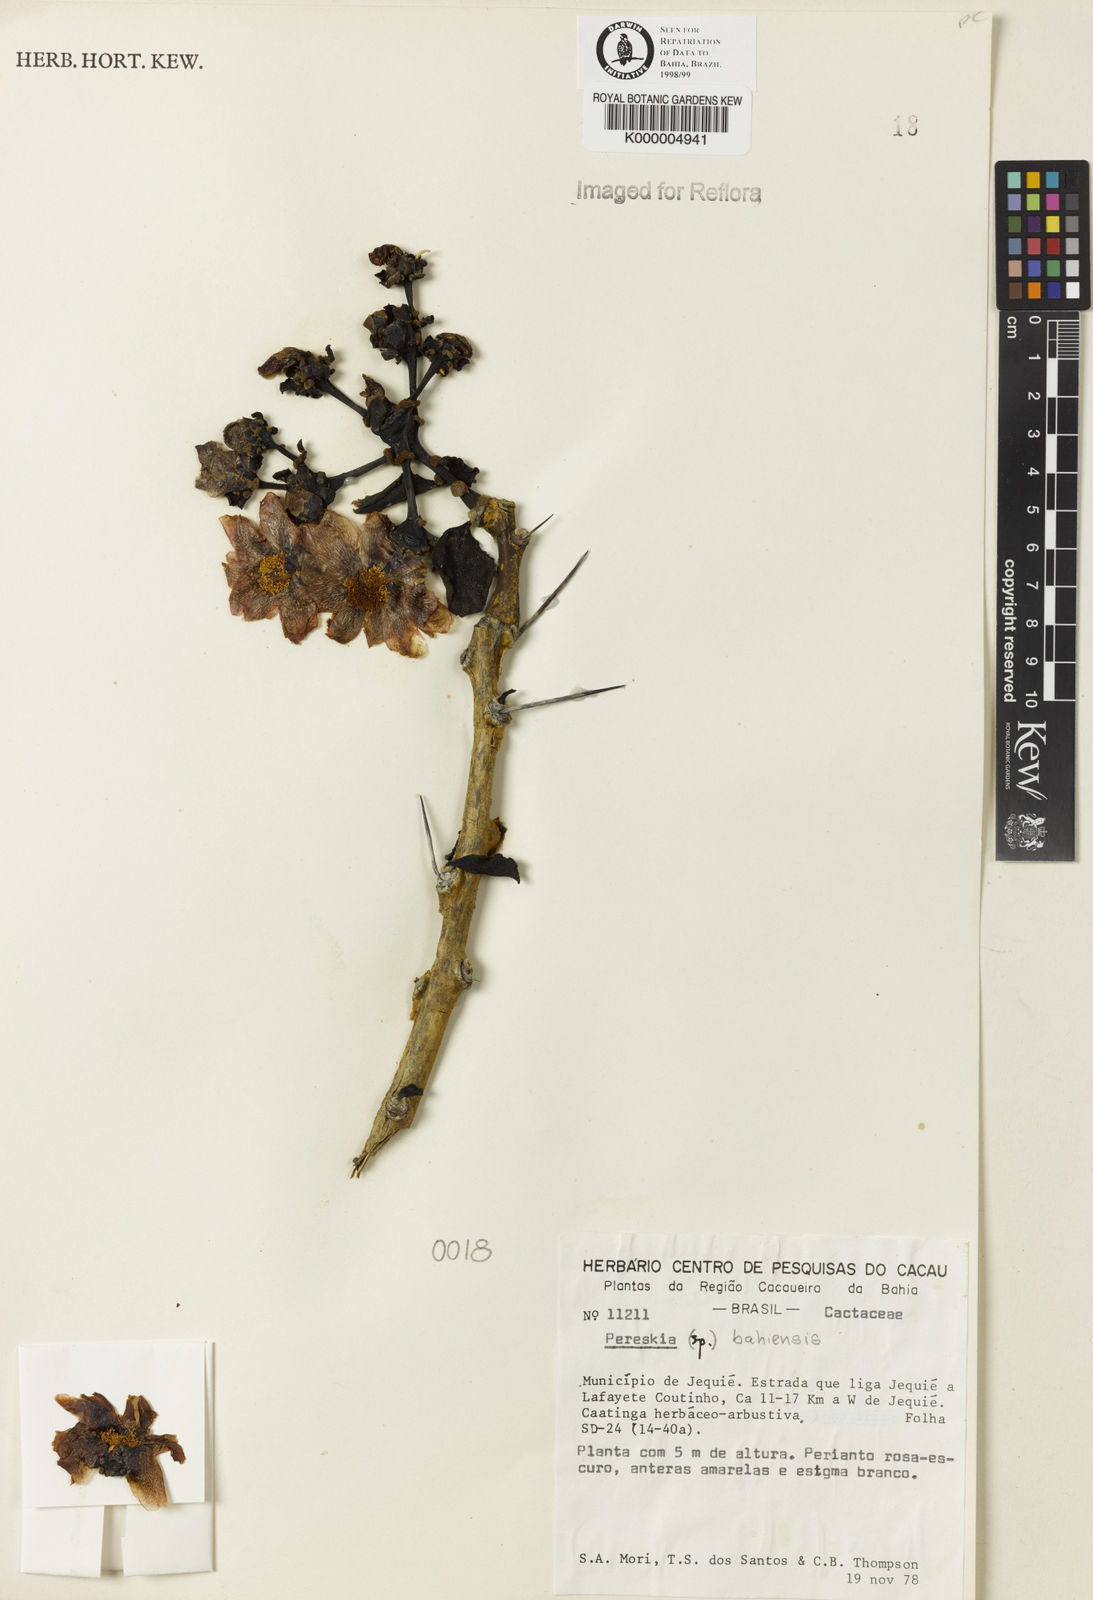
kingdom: Plantae
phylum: Tracheophyta
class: Magnoliopsida
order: Caryophyllales
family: Cactaceae
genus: Pereskia
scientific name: Pereskia
